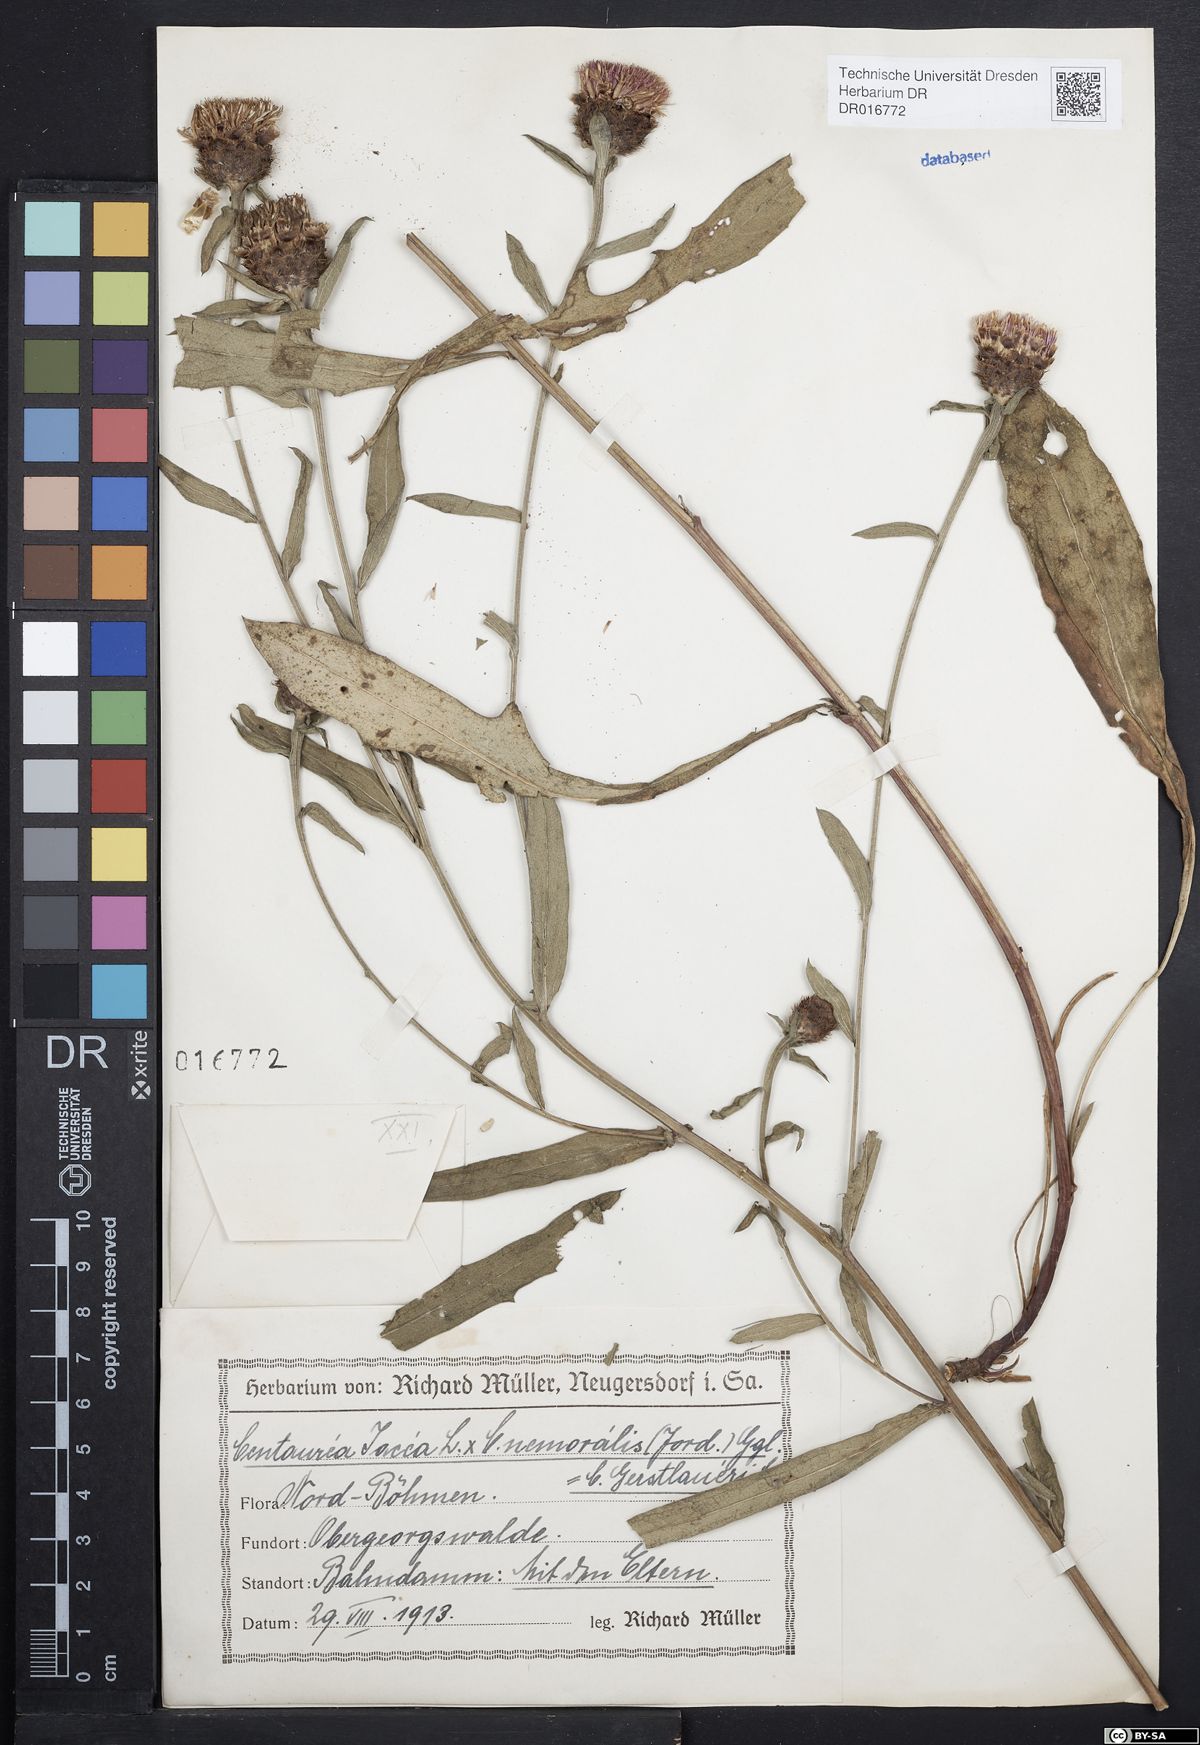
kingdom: Plantae
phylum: Tracheophyta
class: Magnoliopsida
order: Asterales
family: Asteraceae
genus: Centaurea
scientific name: Centaurea jacea
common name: Brown knapweed
